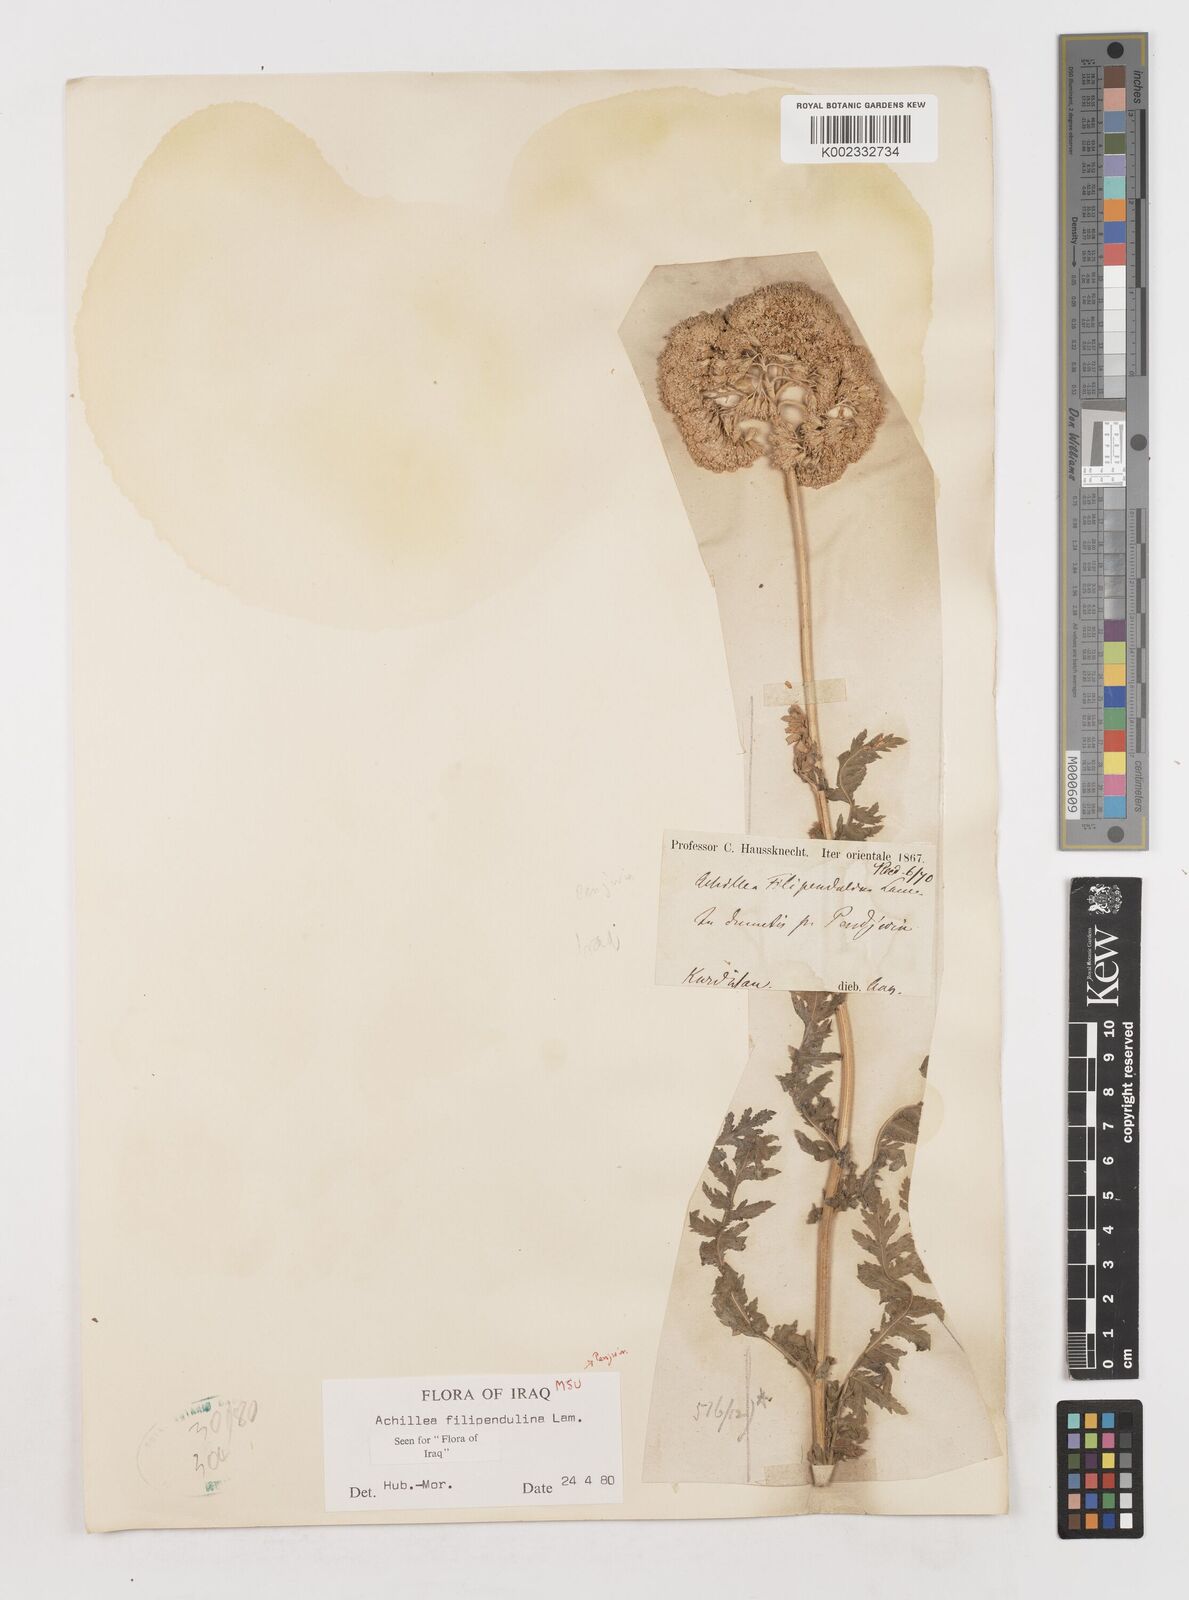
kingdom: Plantae
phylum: Tracheophyta
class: Magnoliopsida
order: Asterales
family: Asteraceae
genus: Achillea
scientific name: Achillea filipendulina
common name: Fernleaf yarrow
